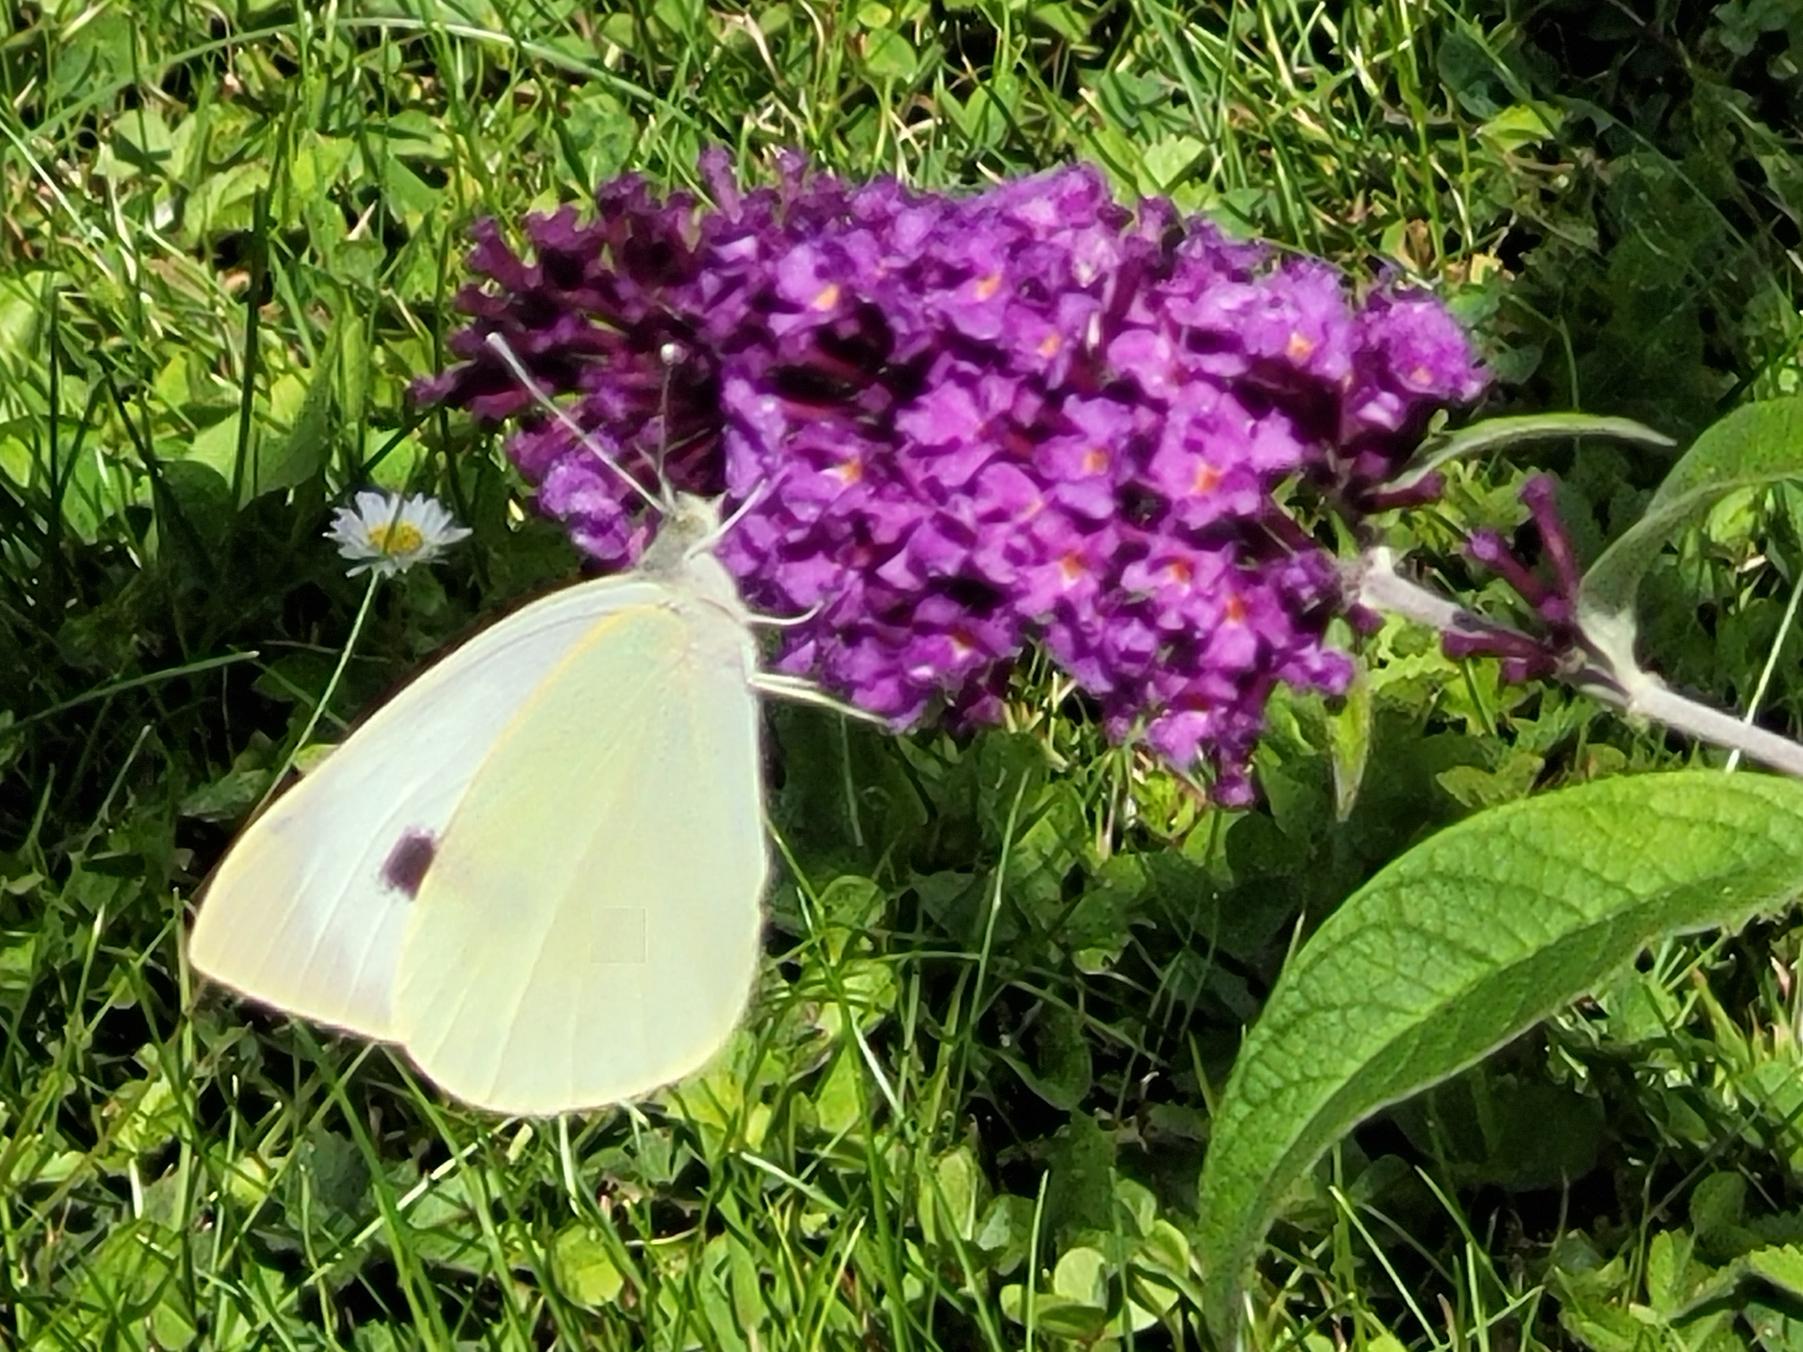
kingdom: Animalia
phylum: Arthropoda
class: Insecta
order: Lepidoptera
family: Pieridae
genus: Pieris
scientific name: Pieris brassicae
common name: Stor kålsommerfugl
